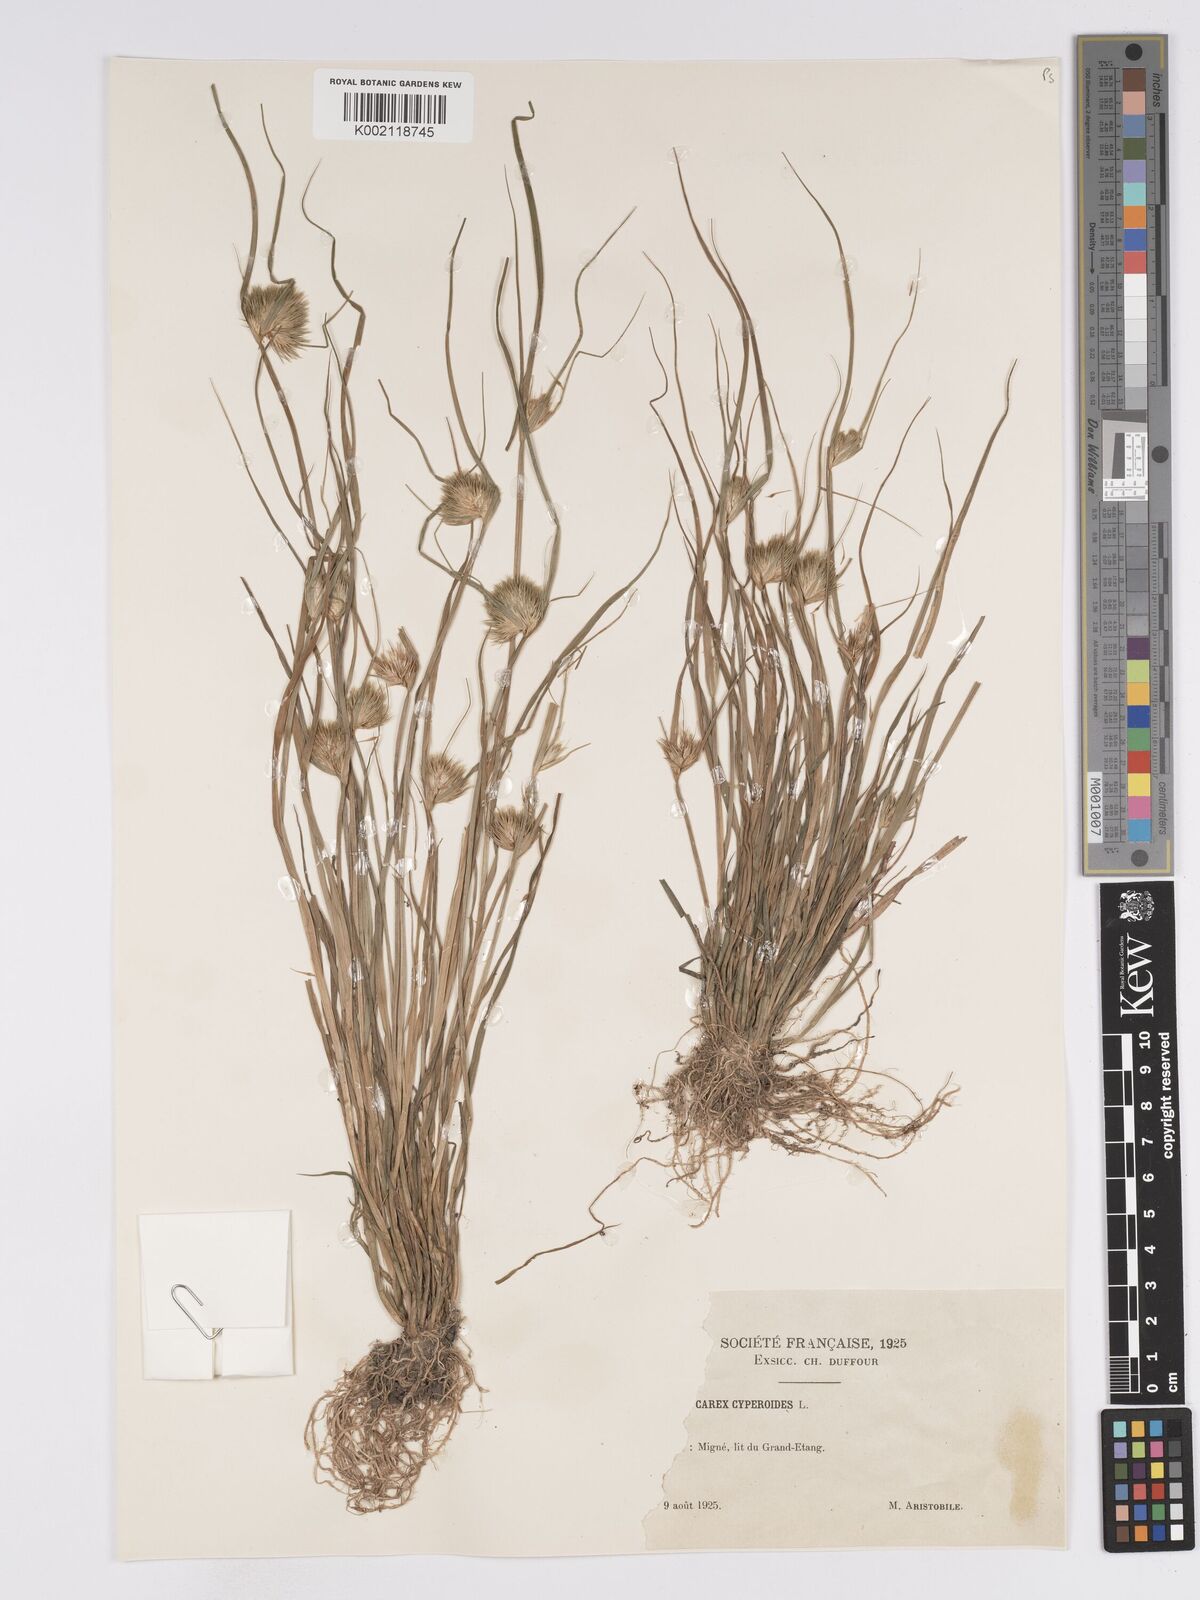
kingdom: Plantae
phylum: Tracheophyta
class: Liliopsida
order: Poales
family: Cyperaceae
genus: Carex
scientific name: Carex bohemica
